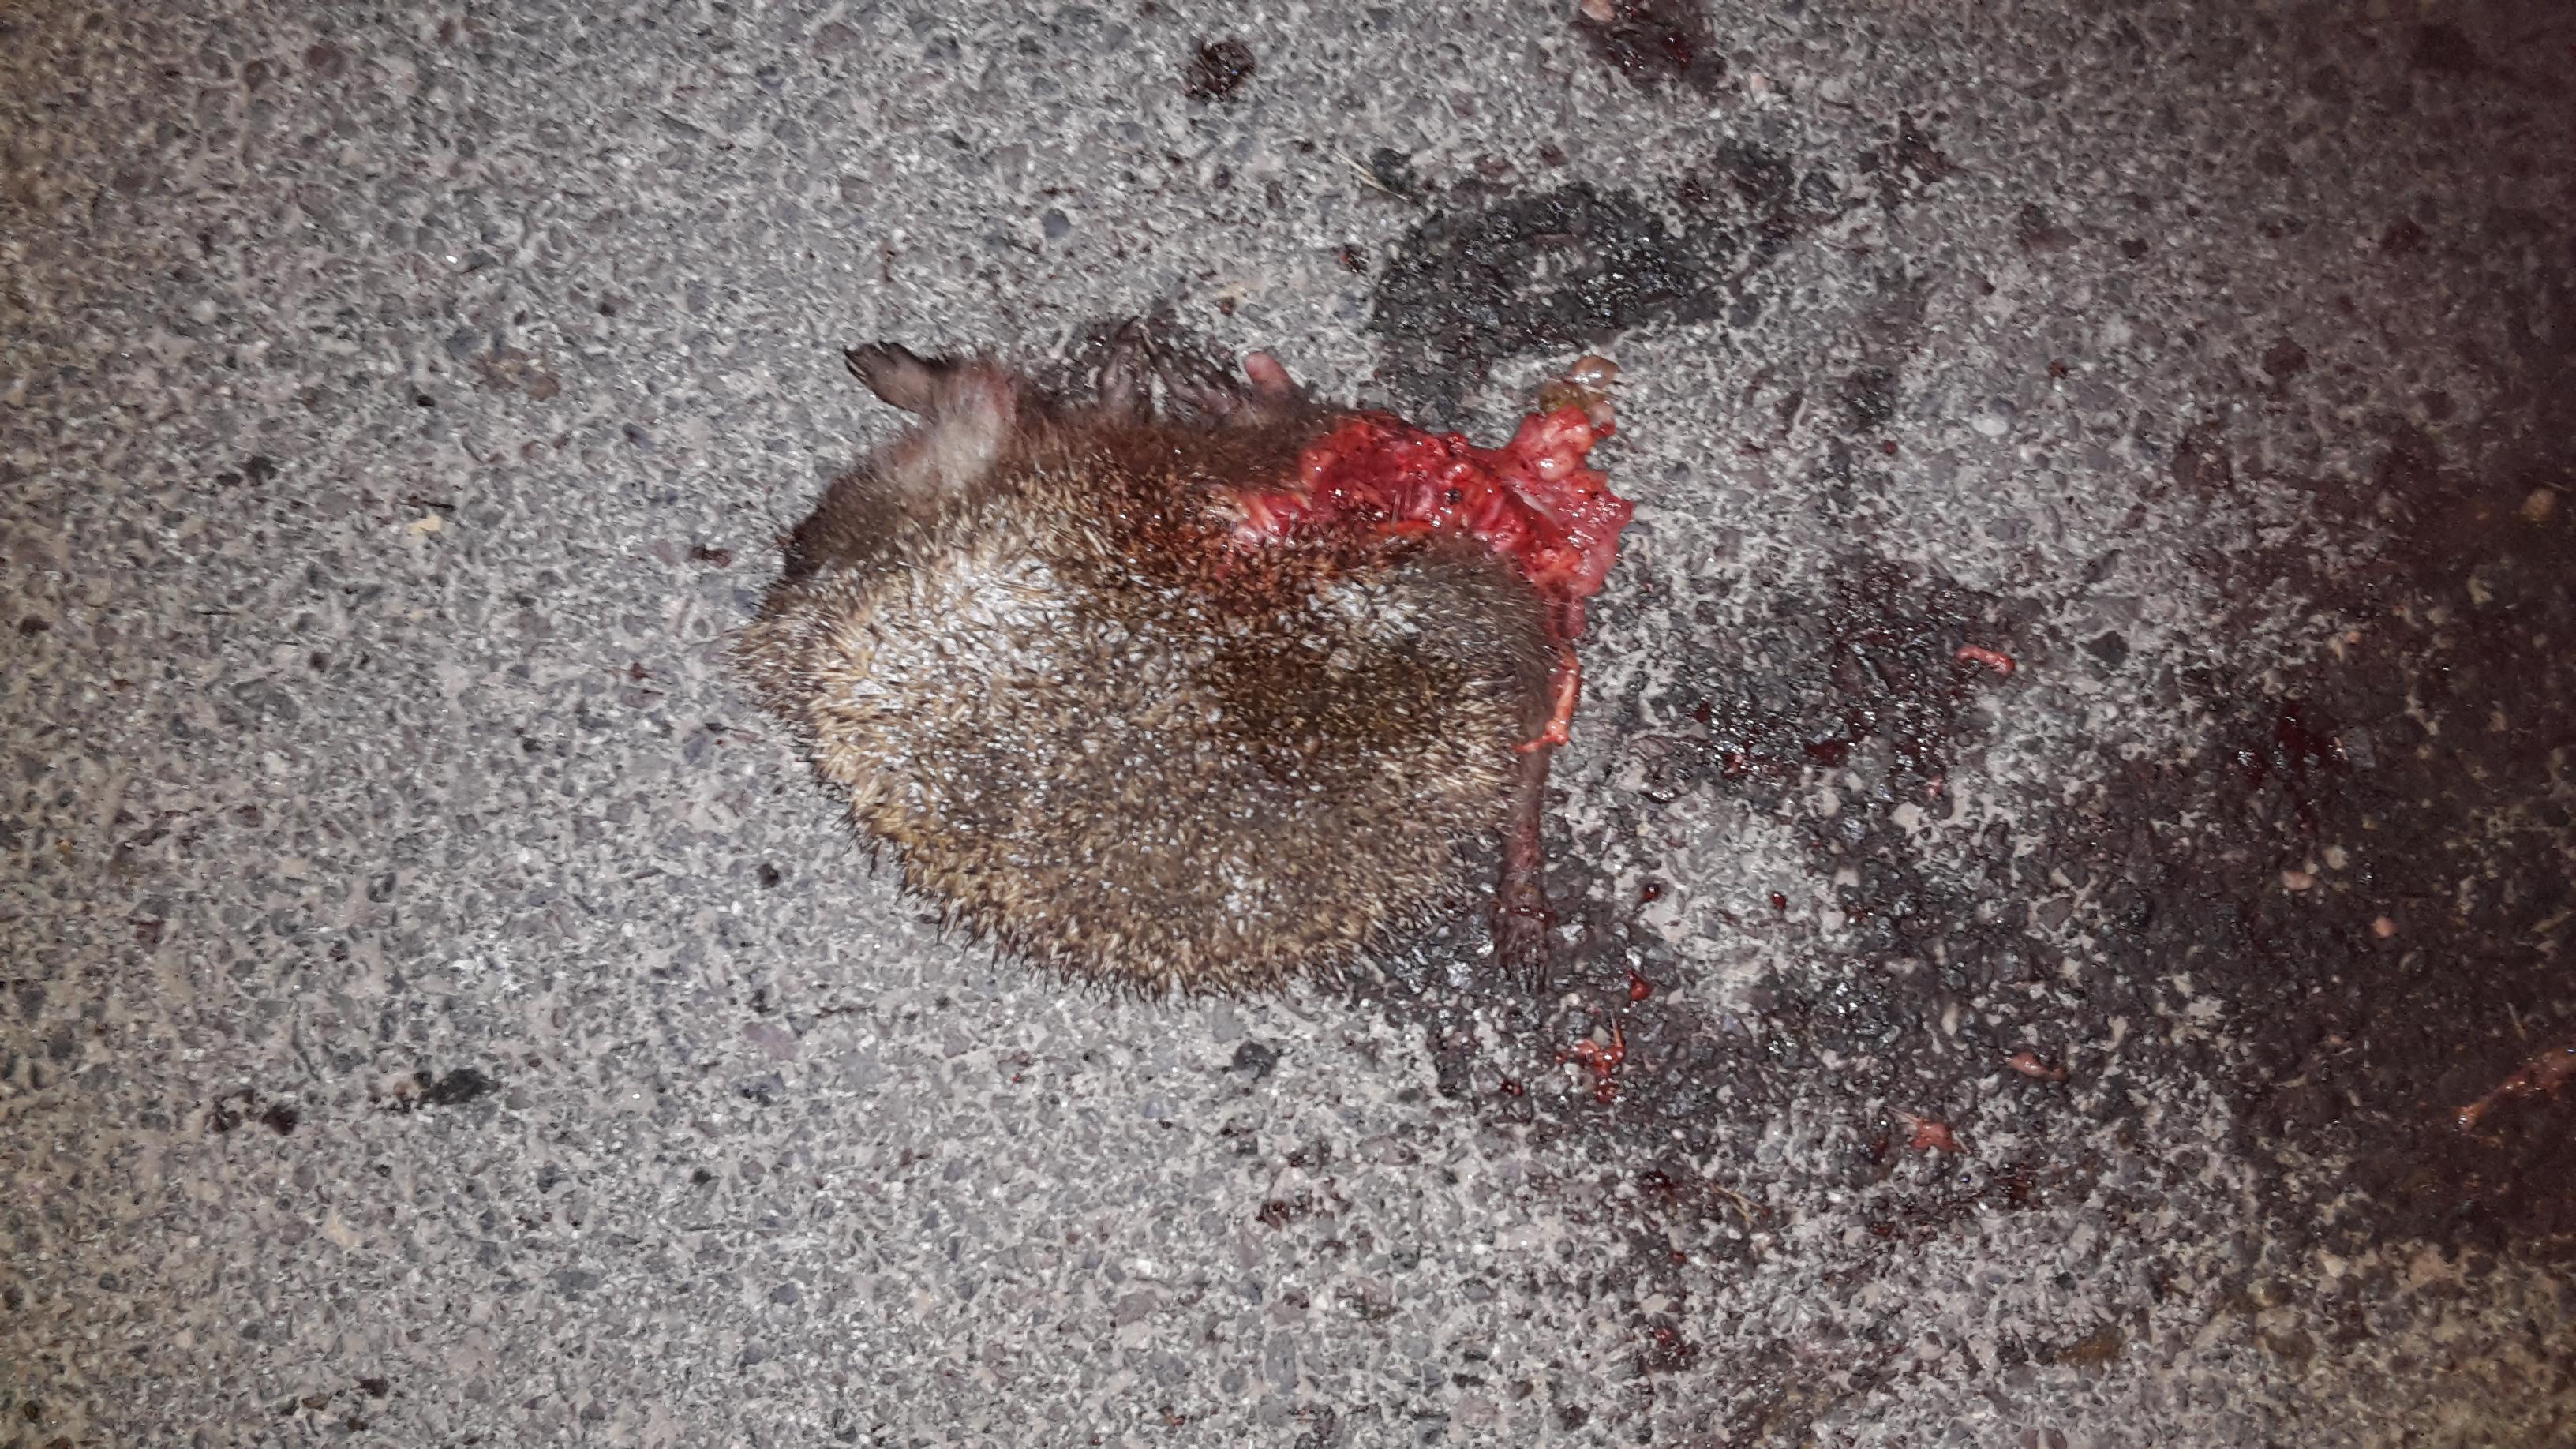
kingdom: Animalia
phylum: Chordata
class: Mammalia
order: Erinaceomorpha
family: Erinaceidae
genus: Erinaceus
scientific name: Erinaceus
